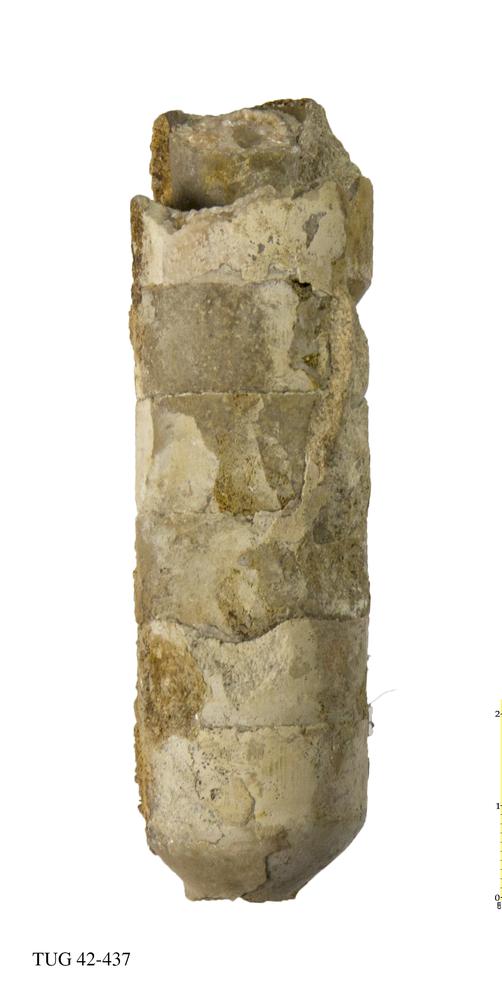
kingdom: Animalia
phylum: Mollusca
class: Cephalopoda
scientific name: Cephalopoda
